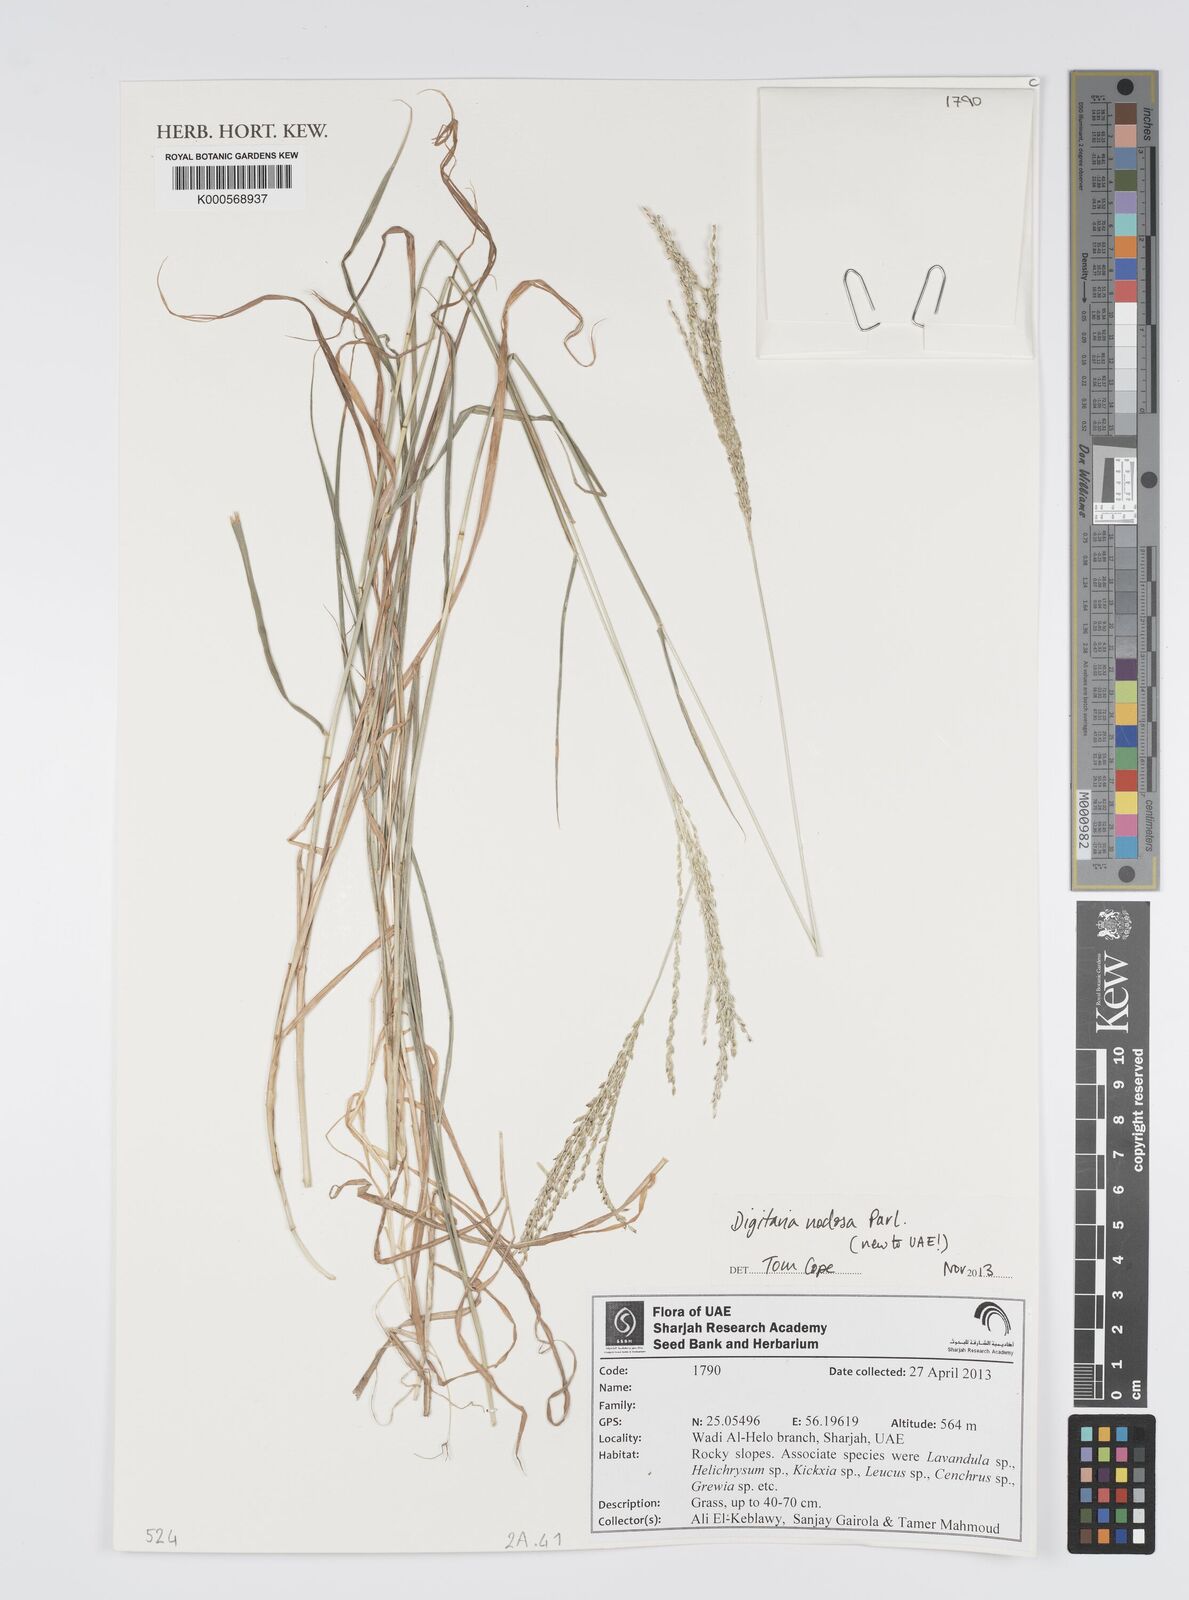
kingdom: Plantae
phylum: Tracheophyta
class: Liliopsida
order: Poales
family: Poaceae
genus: Digitaria
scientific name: Digitaria nodosa
